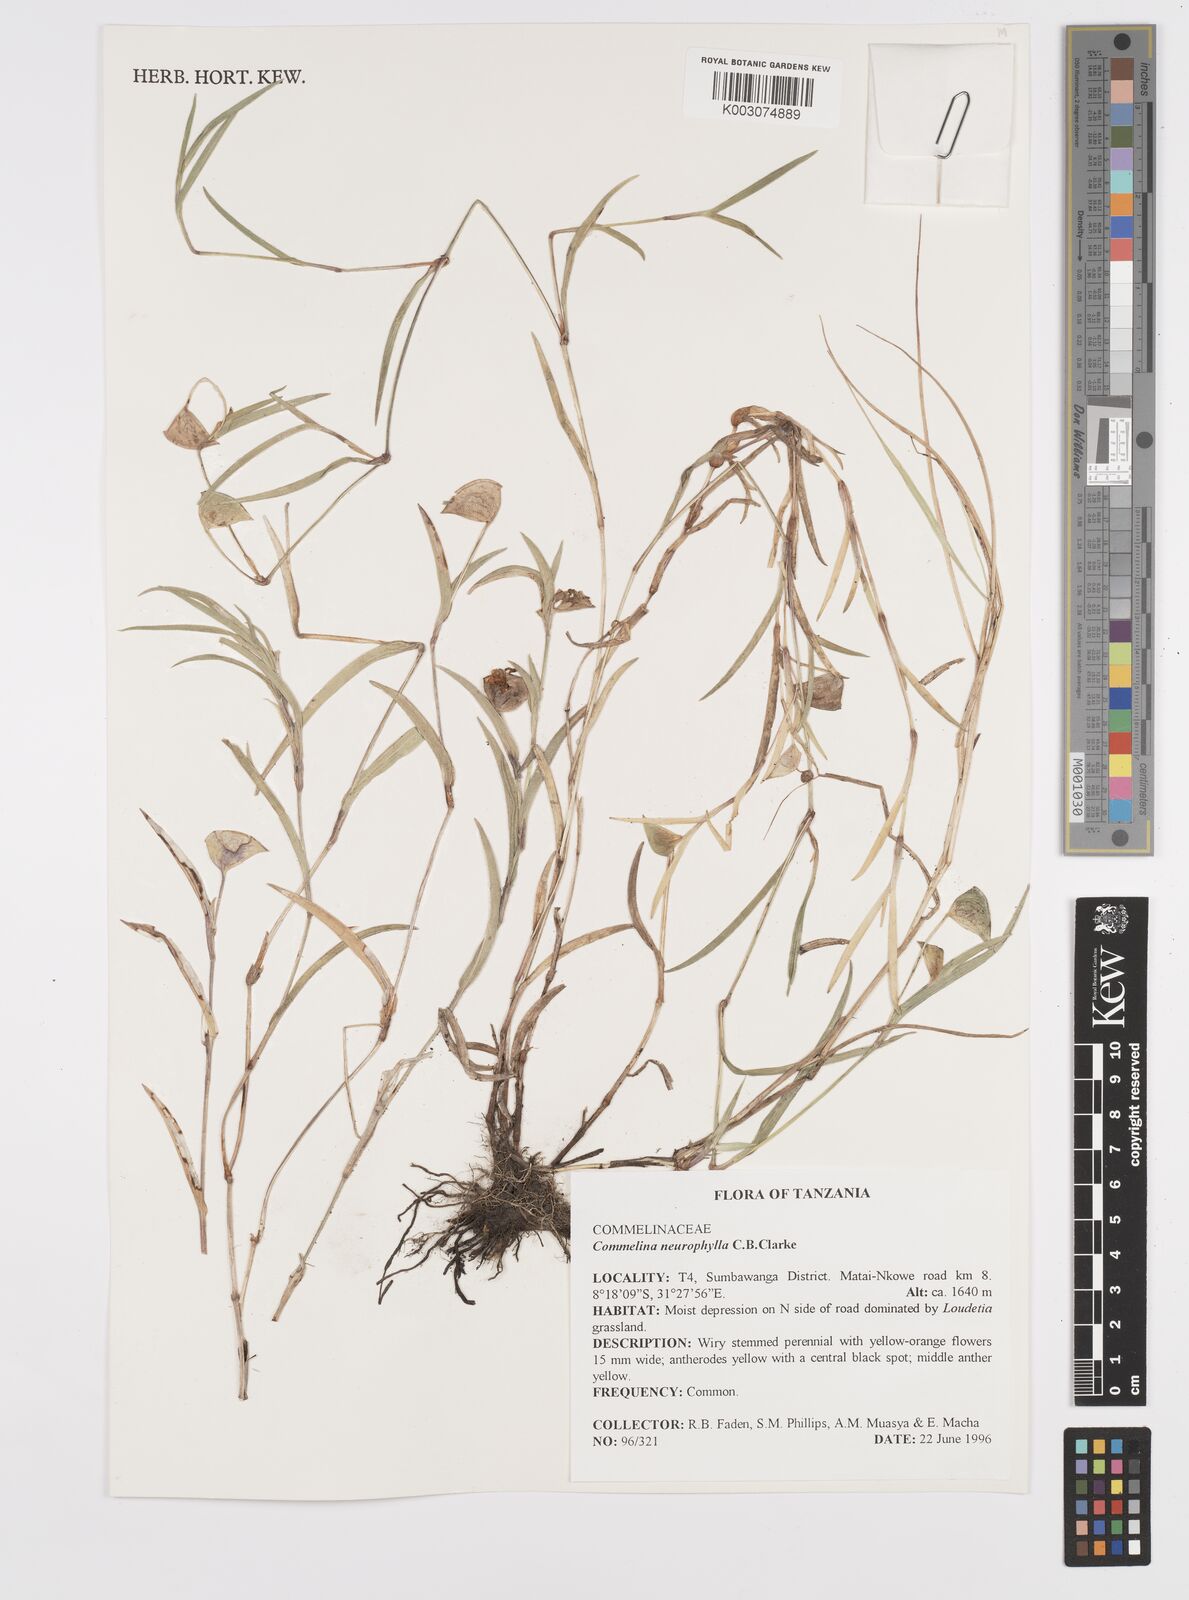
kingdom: Plantae
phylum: Tracheophyta
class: Liliopsida
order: Commelinales
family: Commelinaceae
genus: Commelina
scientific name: Commelina neurophylla
